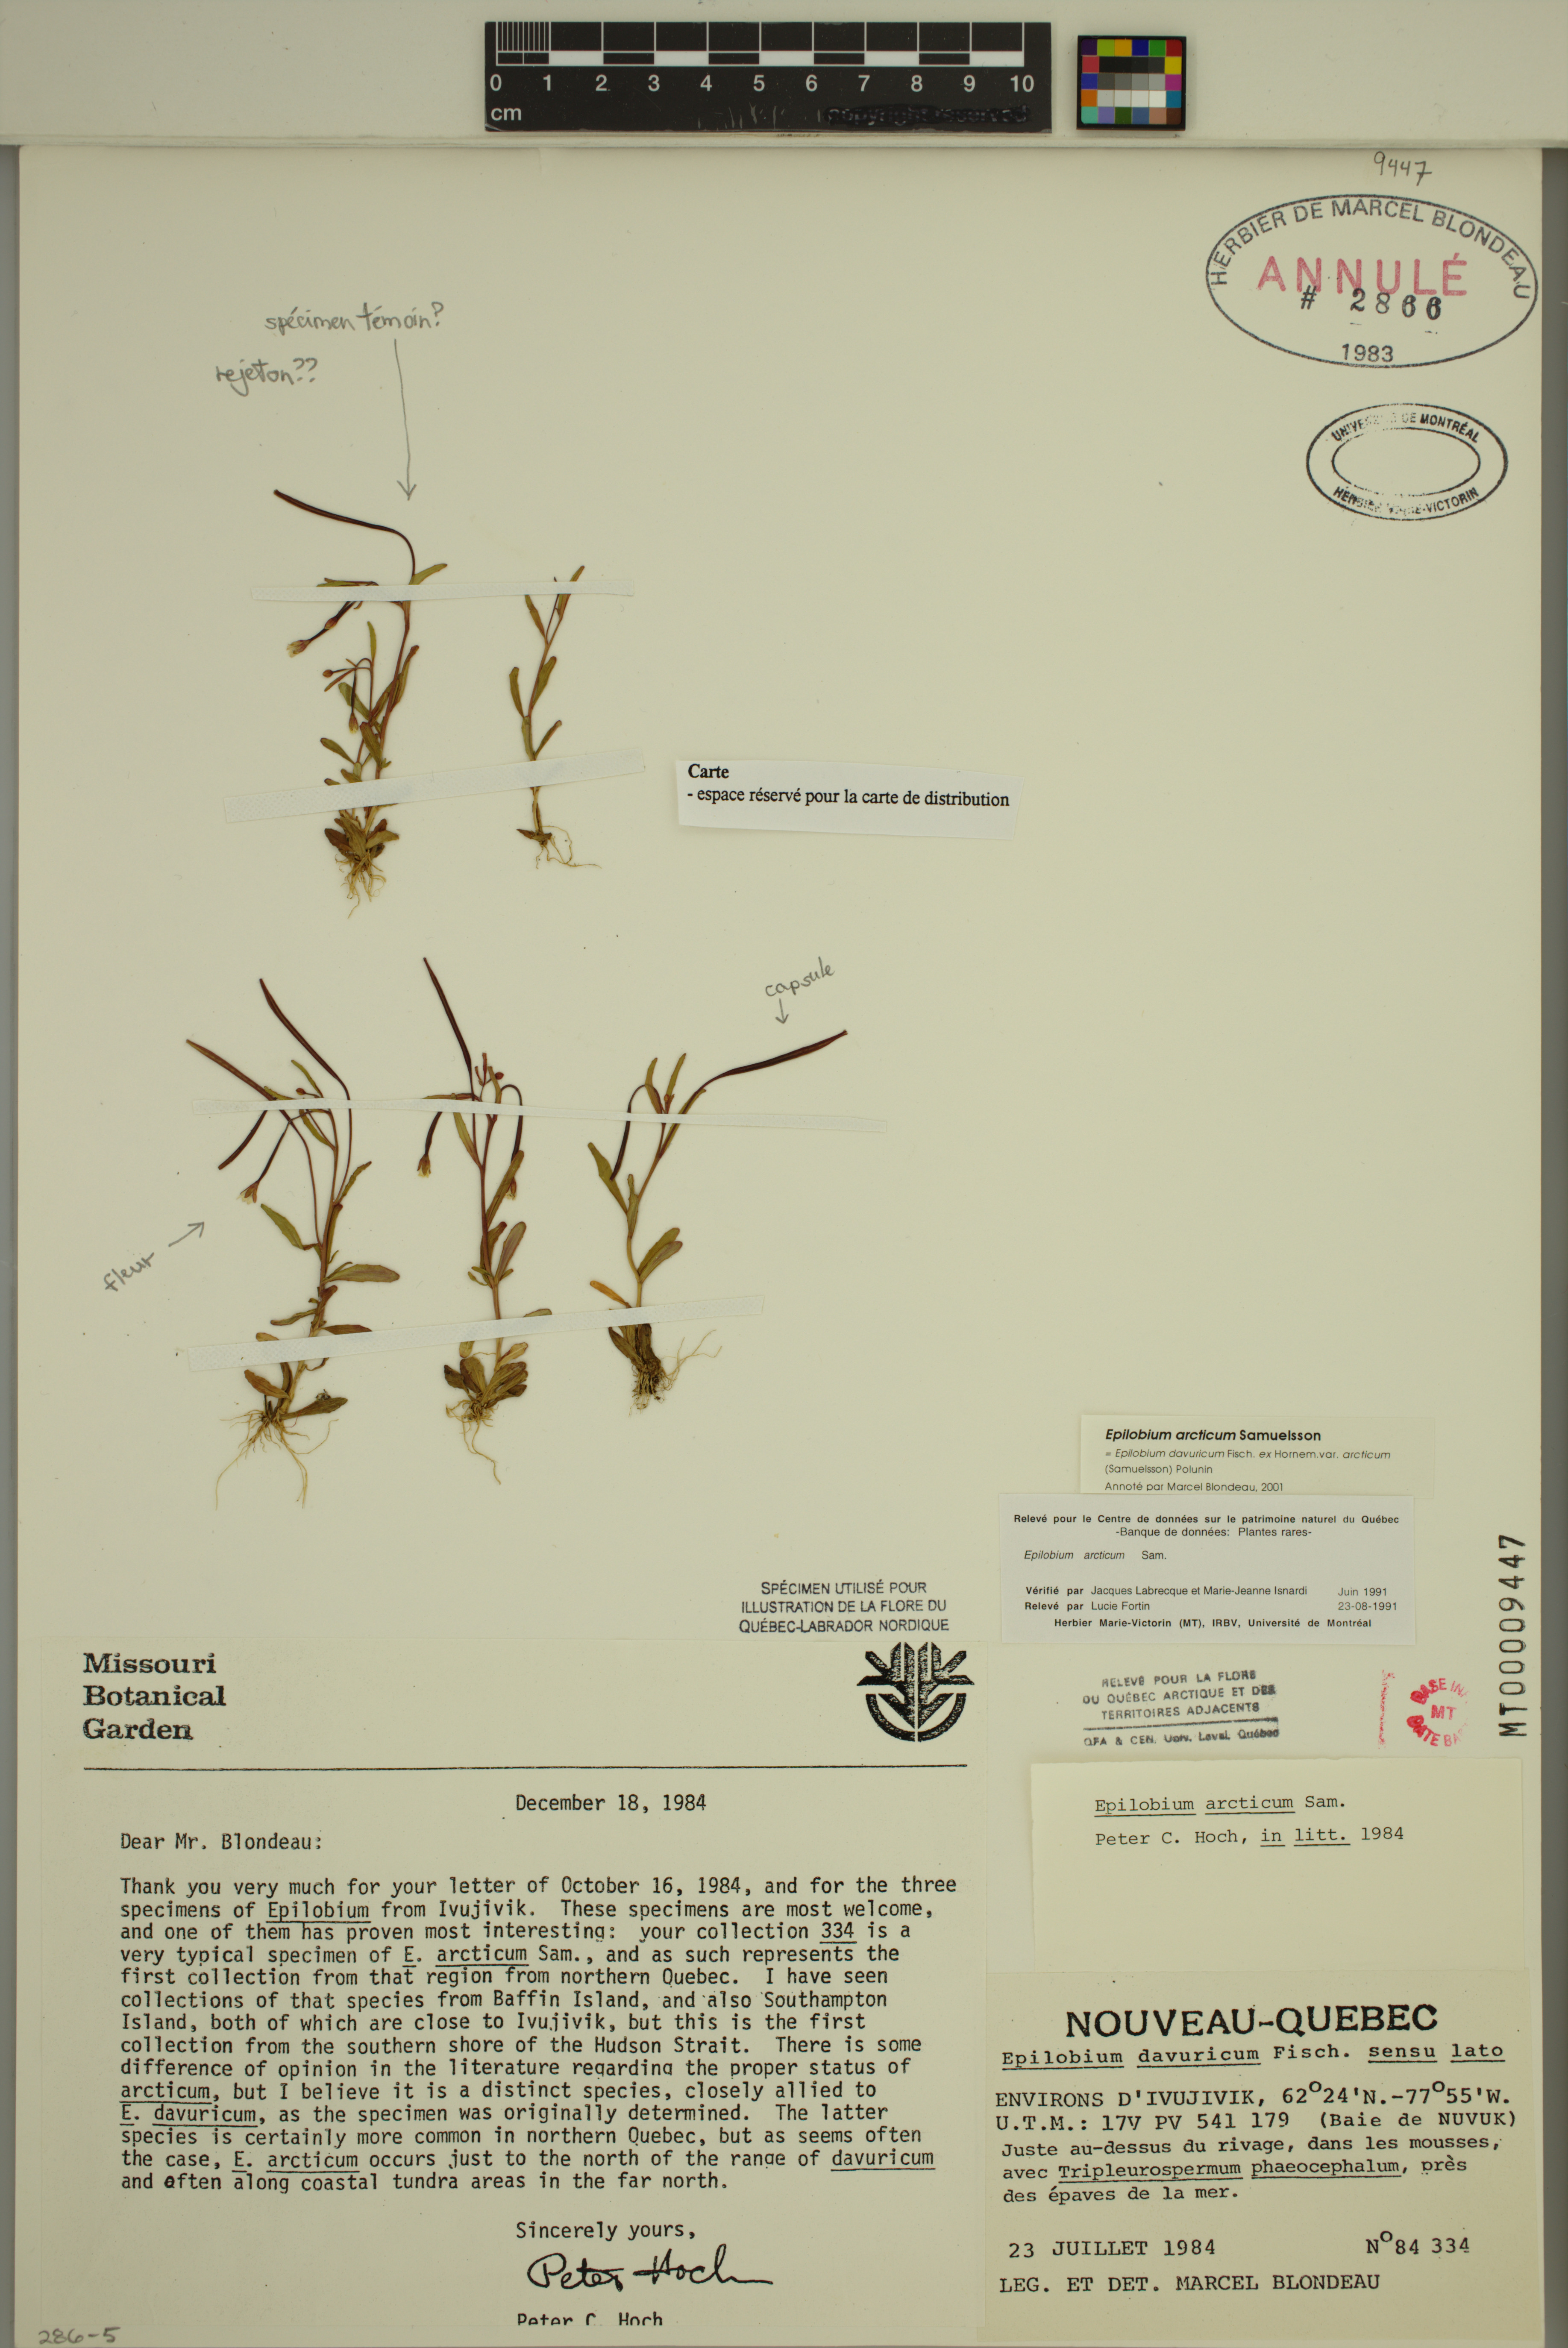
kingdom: Plantae
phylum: Tracheophyta
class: Magnoliopsida
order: Myrtales
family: Onagraceae
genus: Epilobium
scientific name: Epilobium arcticum
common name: Arctic willowherb
